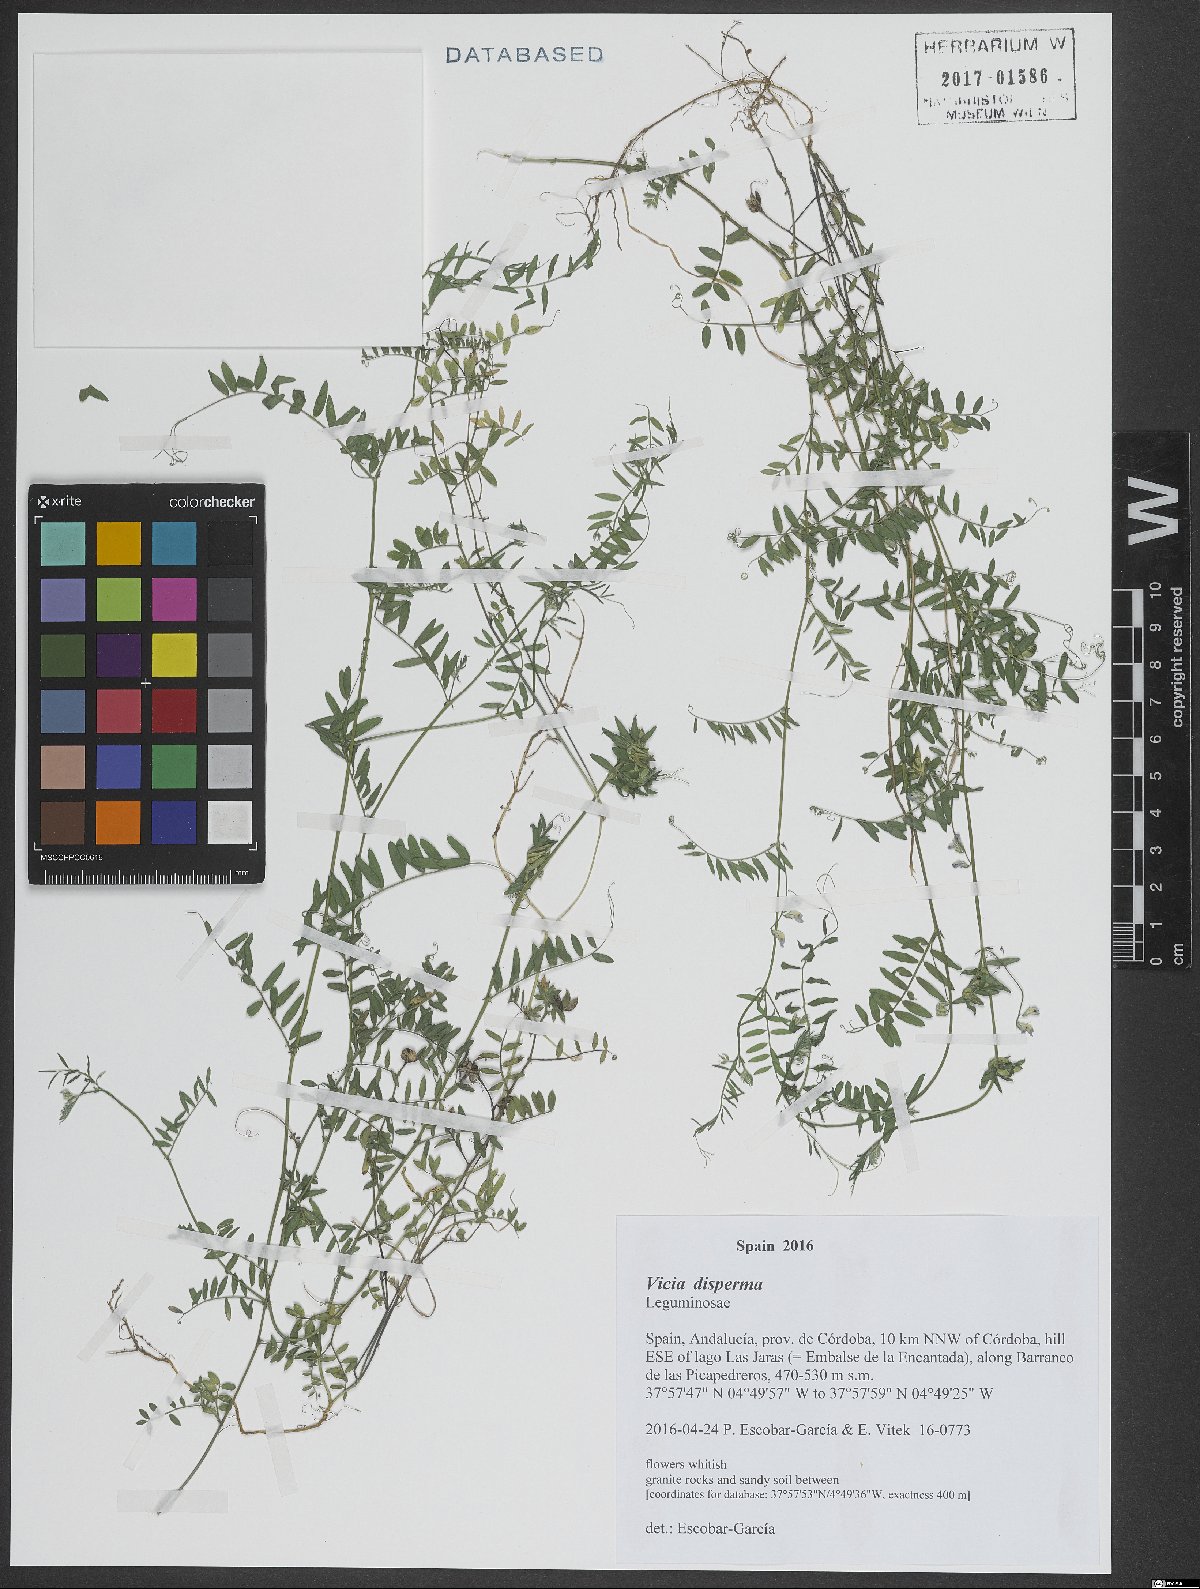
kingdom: Plantae
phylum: Tracheophyta
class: Magnoliopsida
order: Fabales
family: Fabaceae
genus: Vicia
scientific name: Vicia disperma
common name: European vetch
